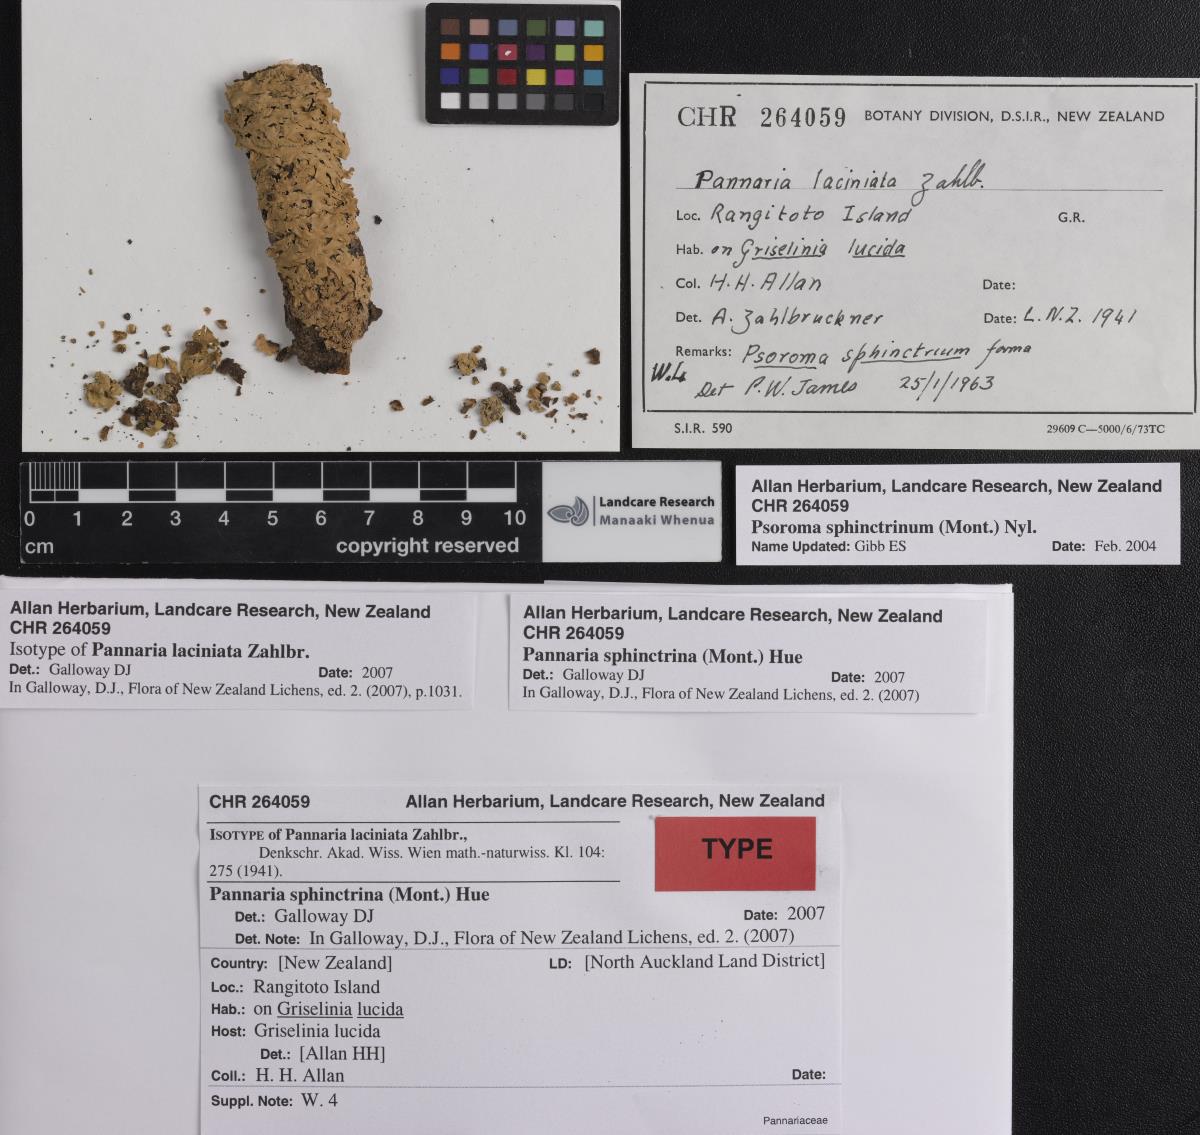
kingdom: Fungi
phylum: Ascomycota
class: Lecanoromycetes
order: Peltigerales
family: Pannariaceae
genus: Pannaria
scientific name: Pannaria
